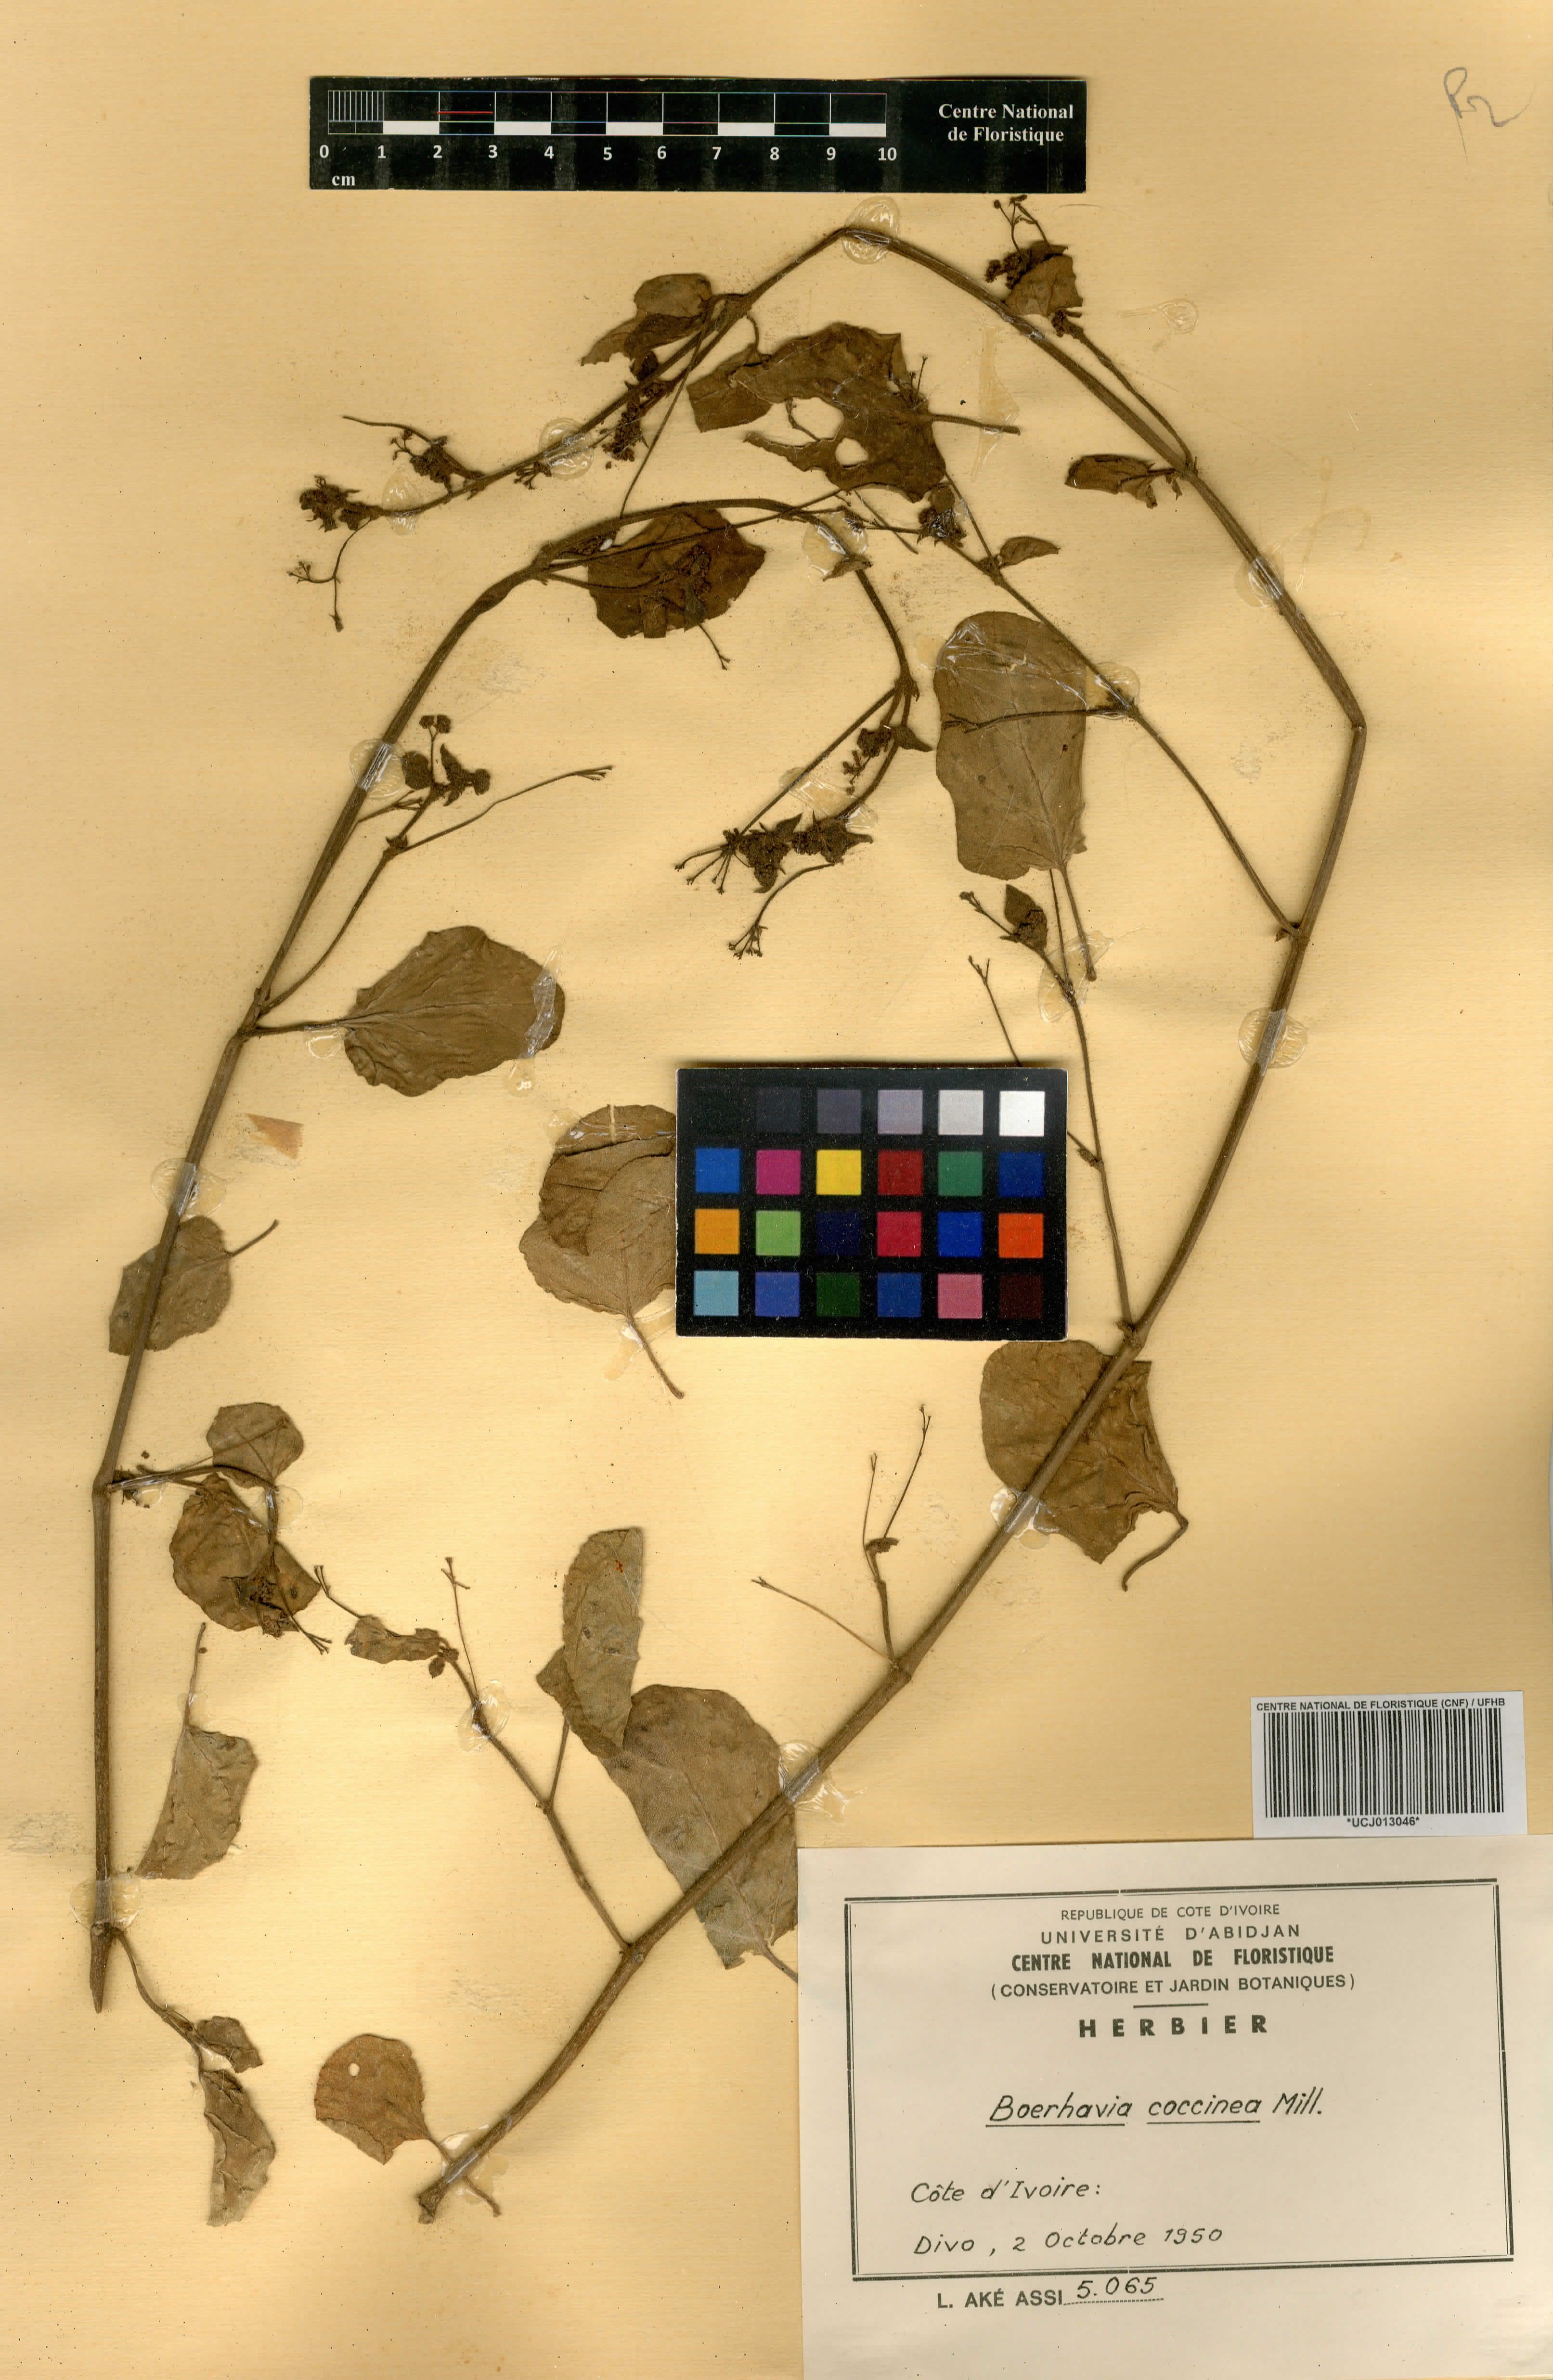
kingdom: Plantae
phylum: Tracheophyta
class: Magnoliopsida
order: Caryophyllales
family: Nyctaginaceae
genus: Boerhavia
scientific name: Boerhavia coccinea
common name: Scarlet spiderling
